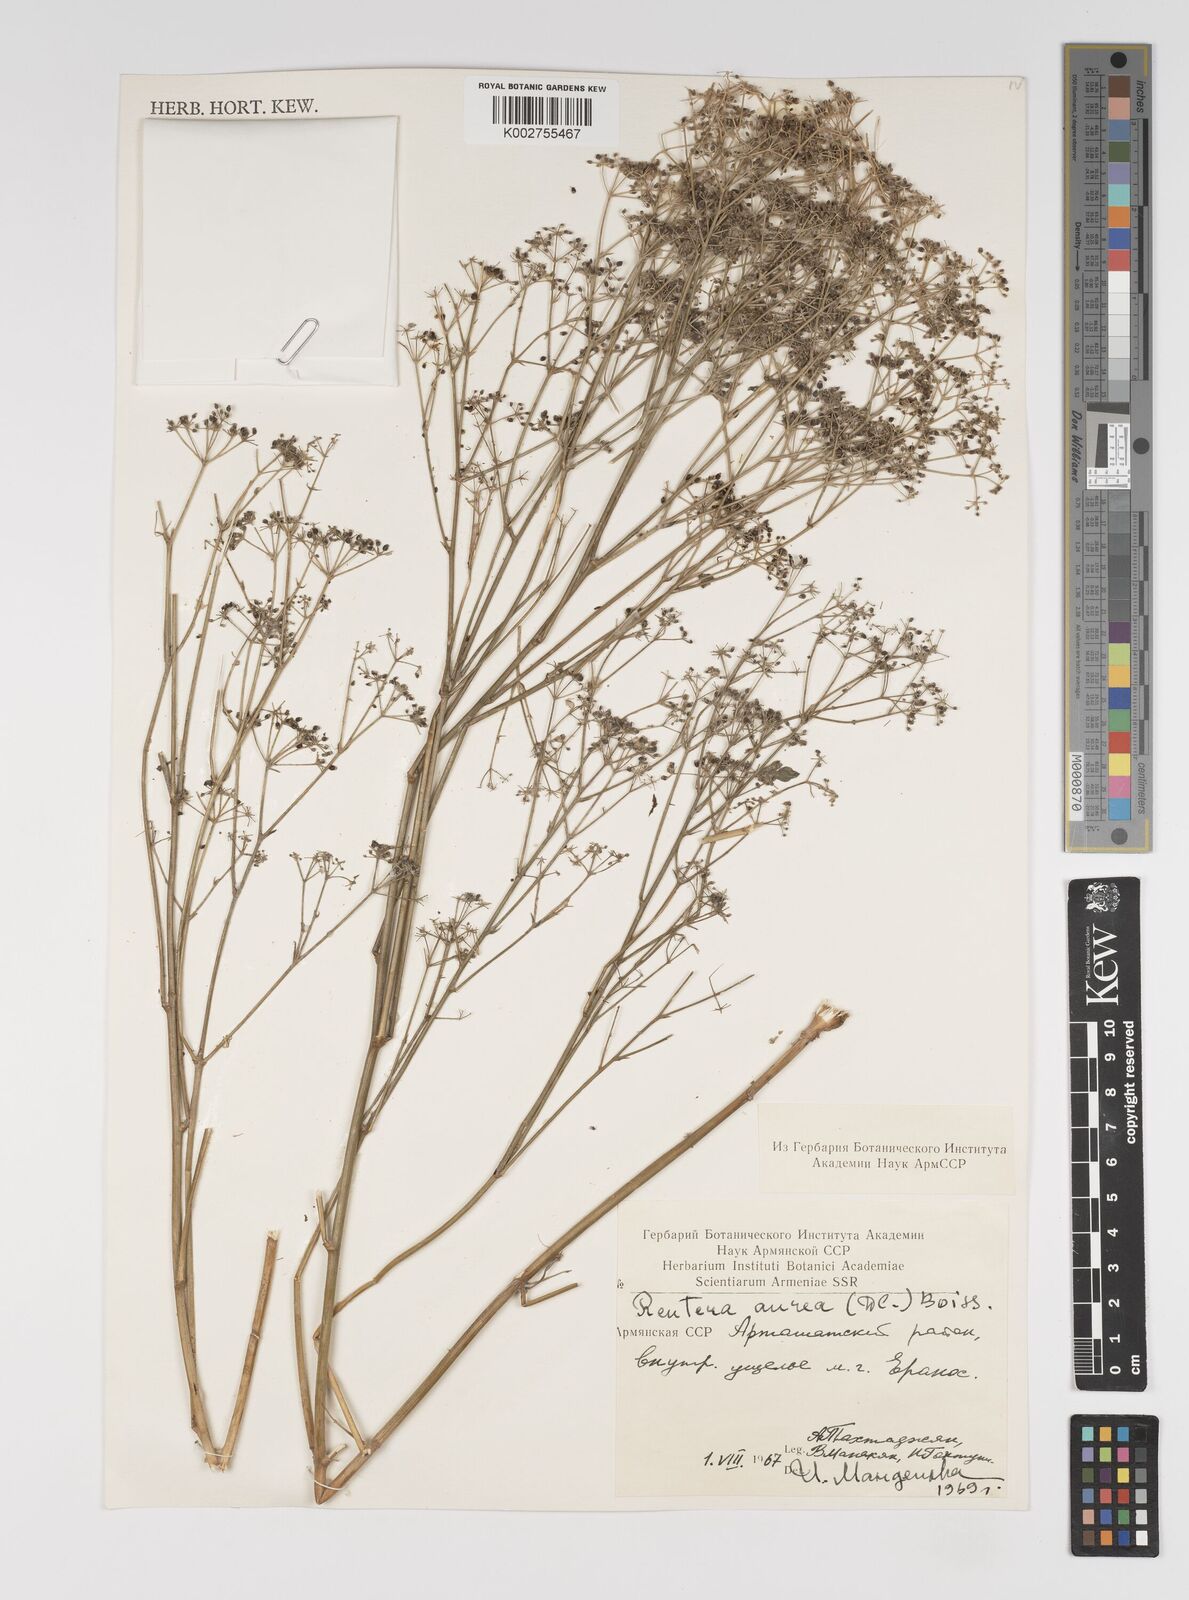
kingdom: Plantae
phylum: Tracheophyta
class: Magnoliopsida
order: Apiales
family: Apiaceae
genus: Pimpinella
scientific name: Pimpinella aurea
